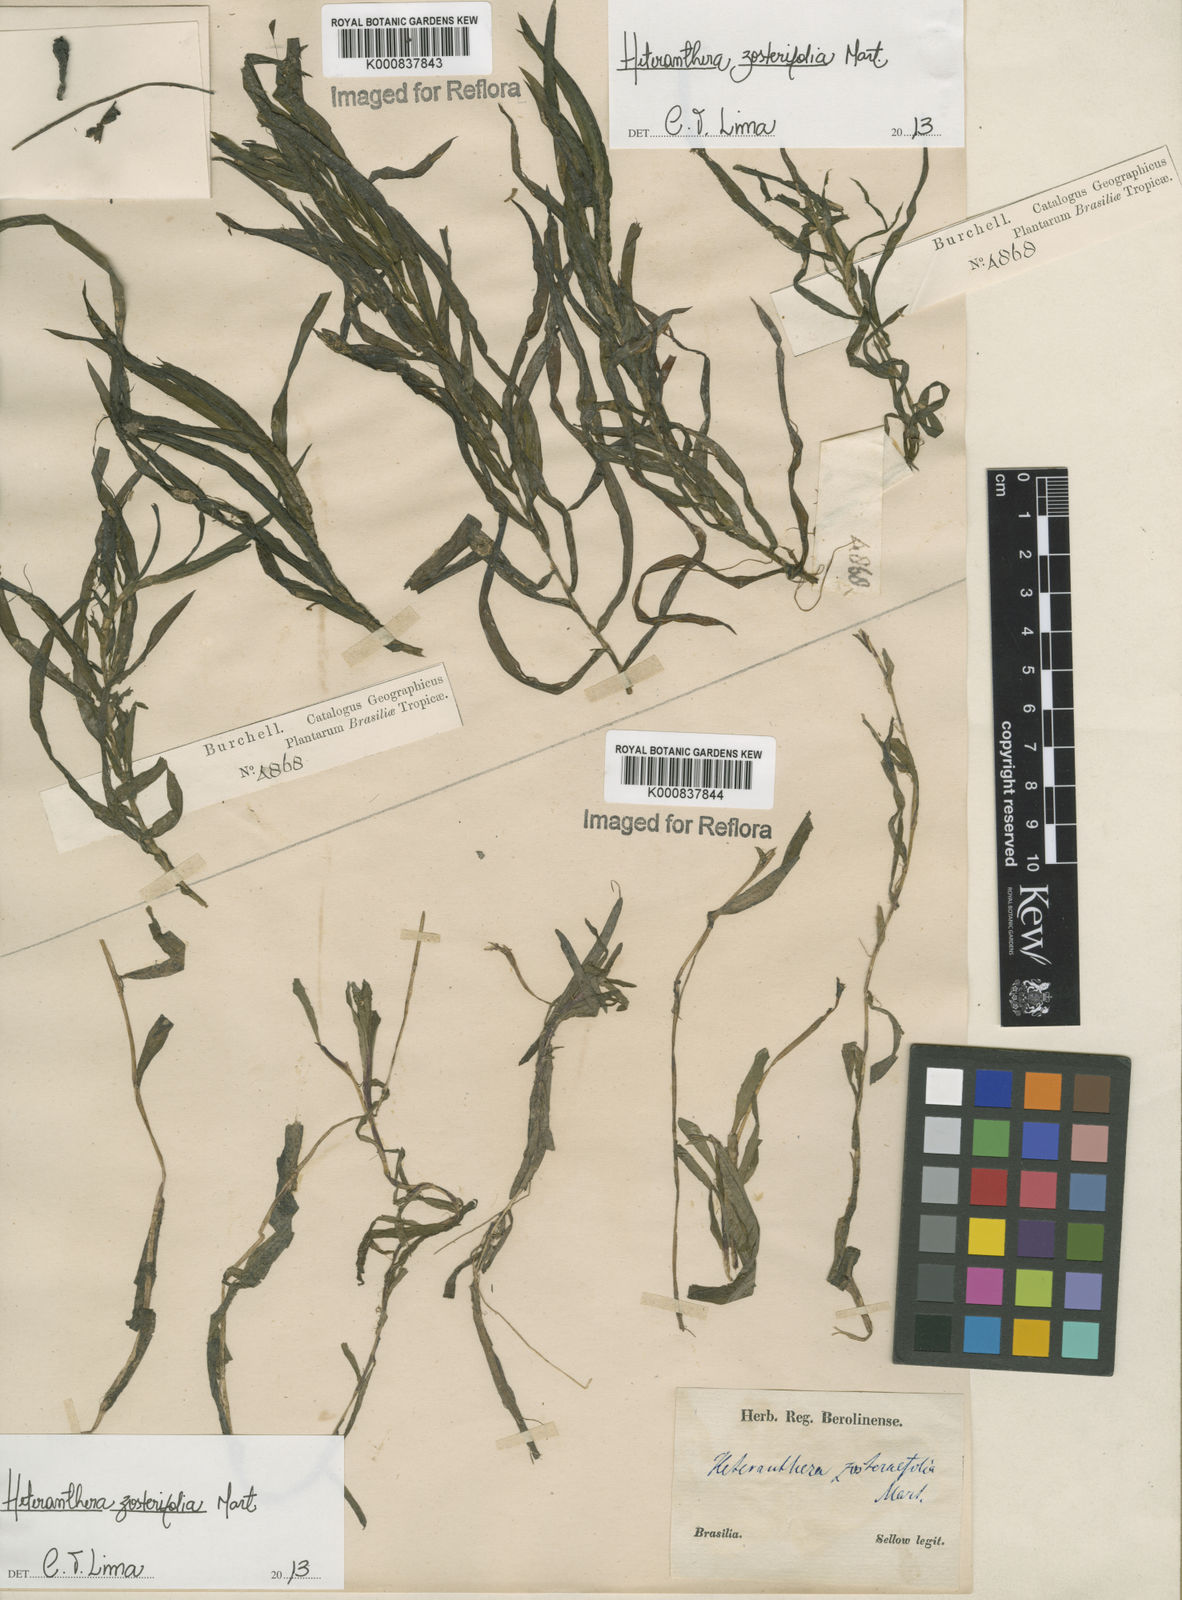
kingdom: Plantae
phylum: Tracheophyta
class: Liliopsida
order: Commelinales
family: Pontederiaceae
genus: Heteranthera
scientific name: Heteranthera zosterifolia
